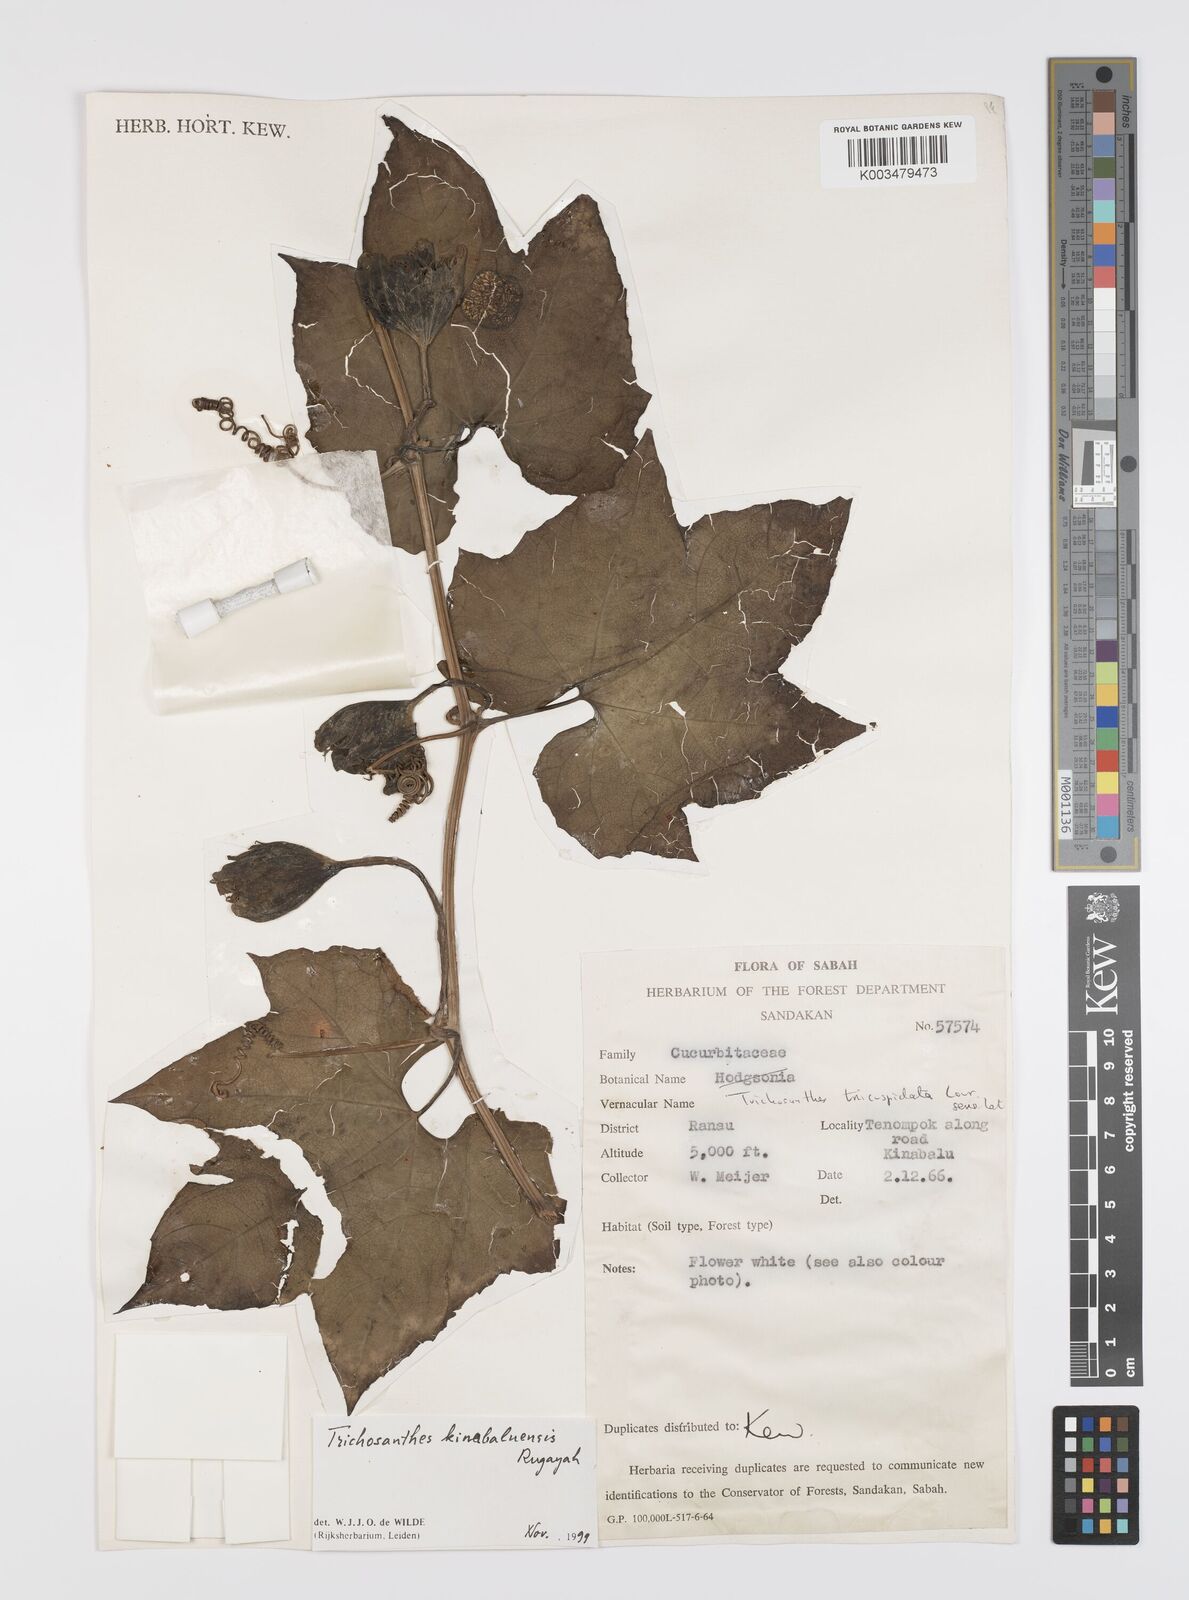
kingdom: Plantae
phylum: Tracheophyta
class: Magnoliopsida
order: Cucurbitales
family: Cucurbitaceae
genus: Trichosanthes
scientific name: Trichosanthes kinabaluensis
